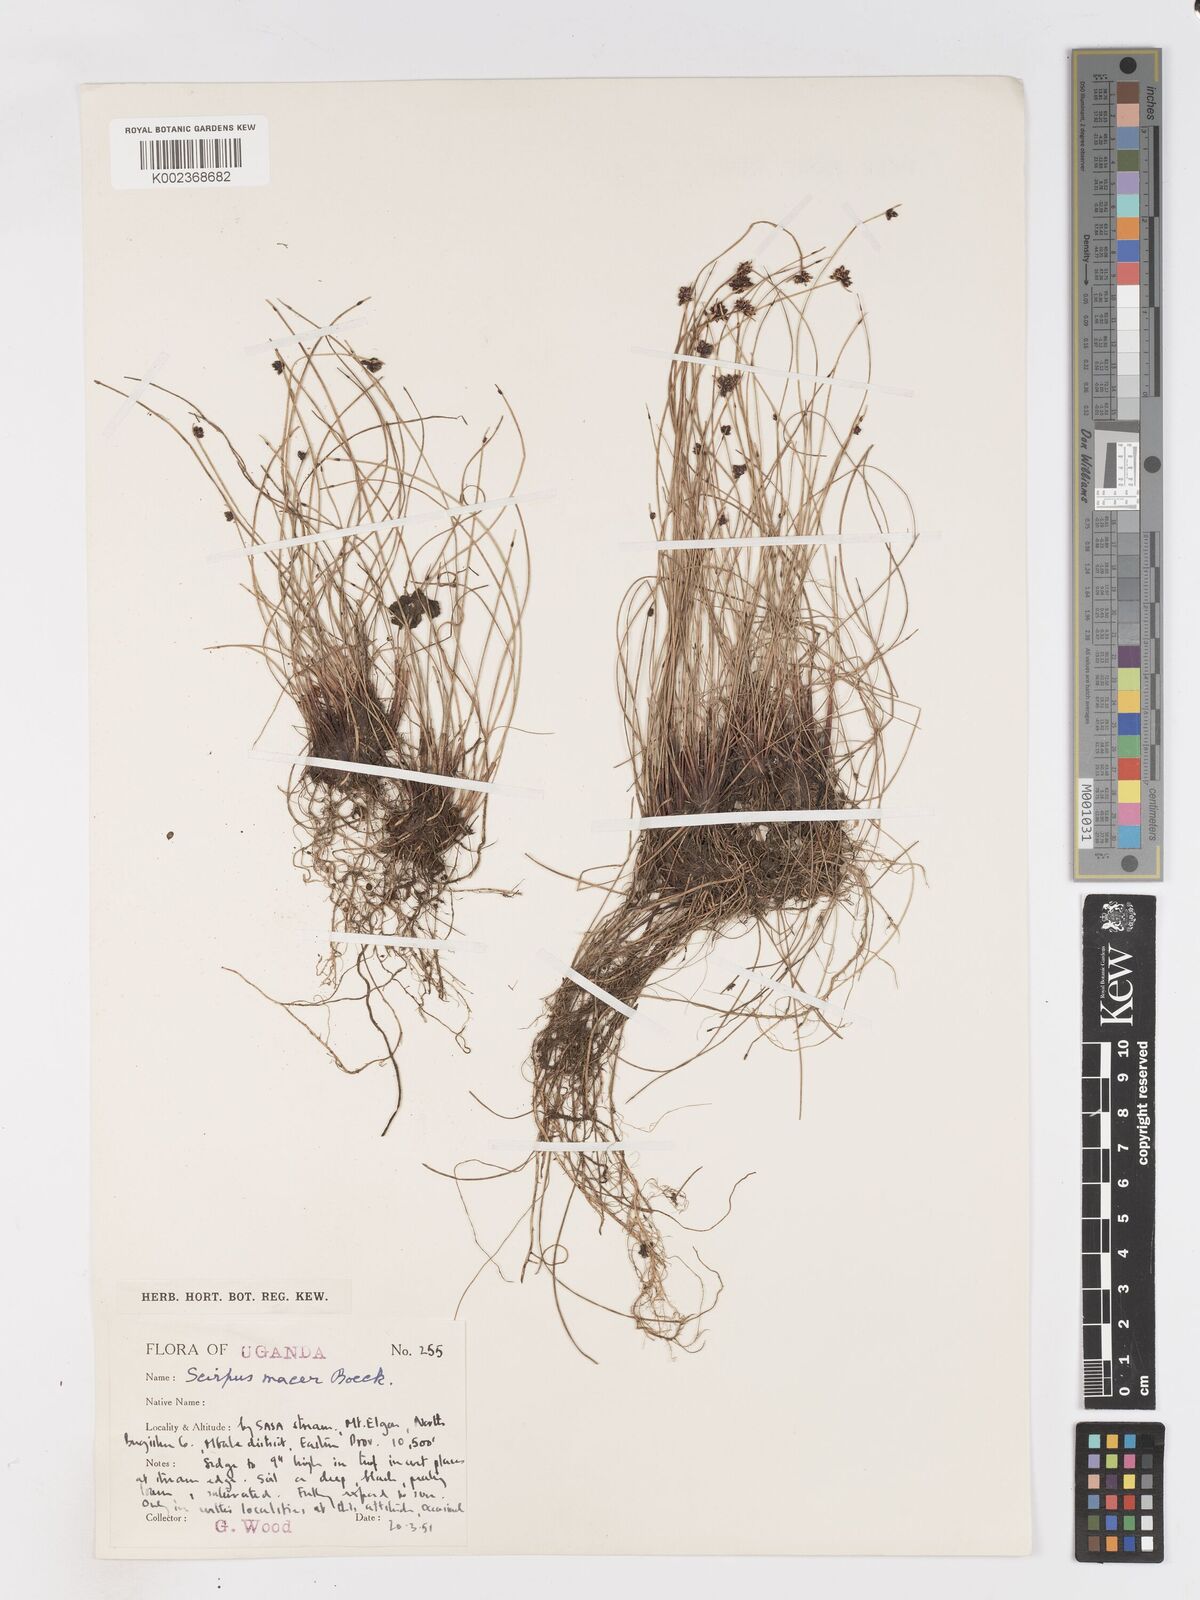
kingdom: Plantae
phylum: Tracheophyta
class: Liliopsida
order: Poales
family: Cyperaceae
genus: Isolepis
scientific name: Isolepis costata
